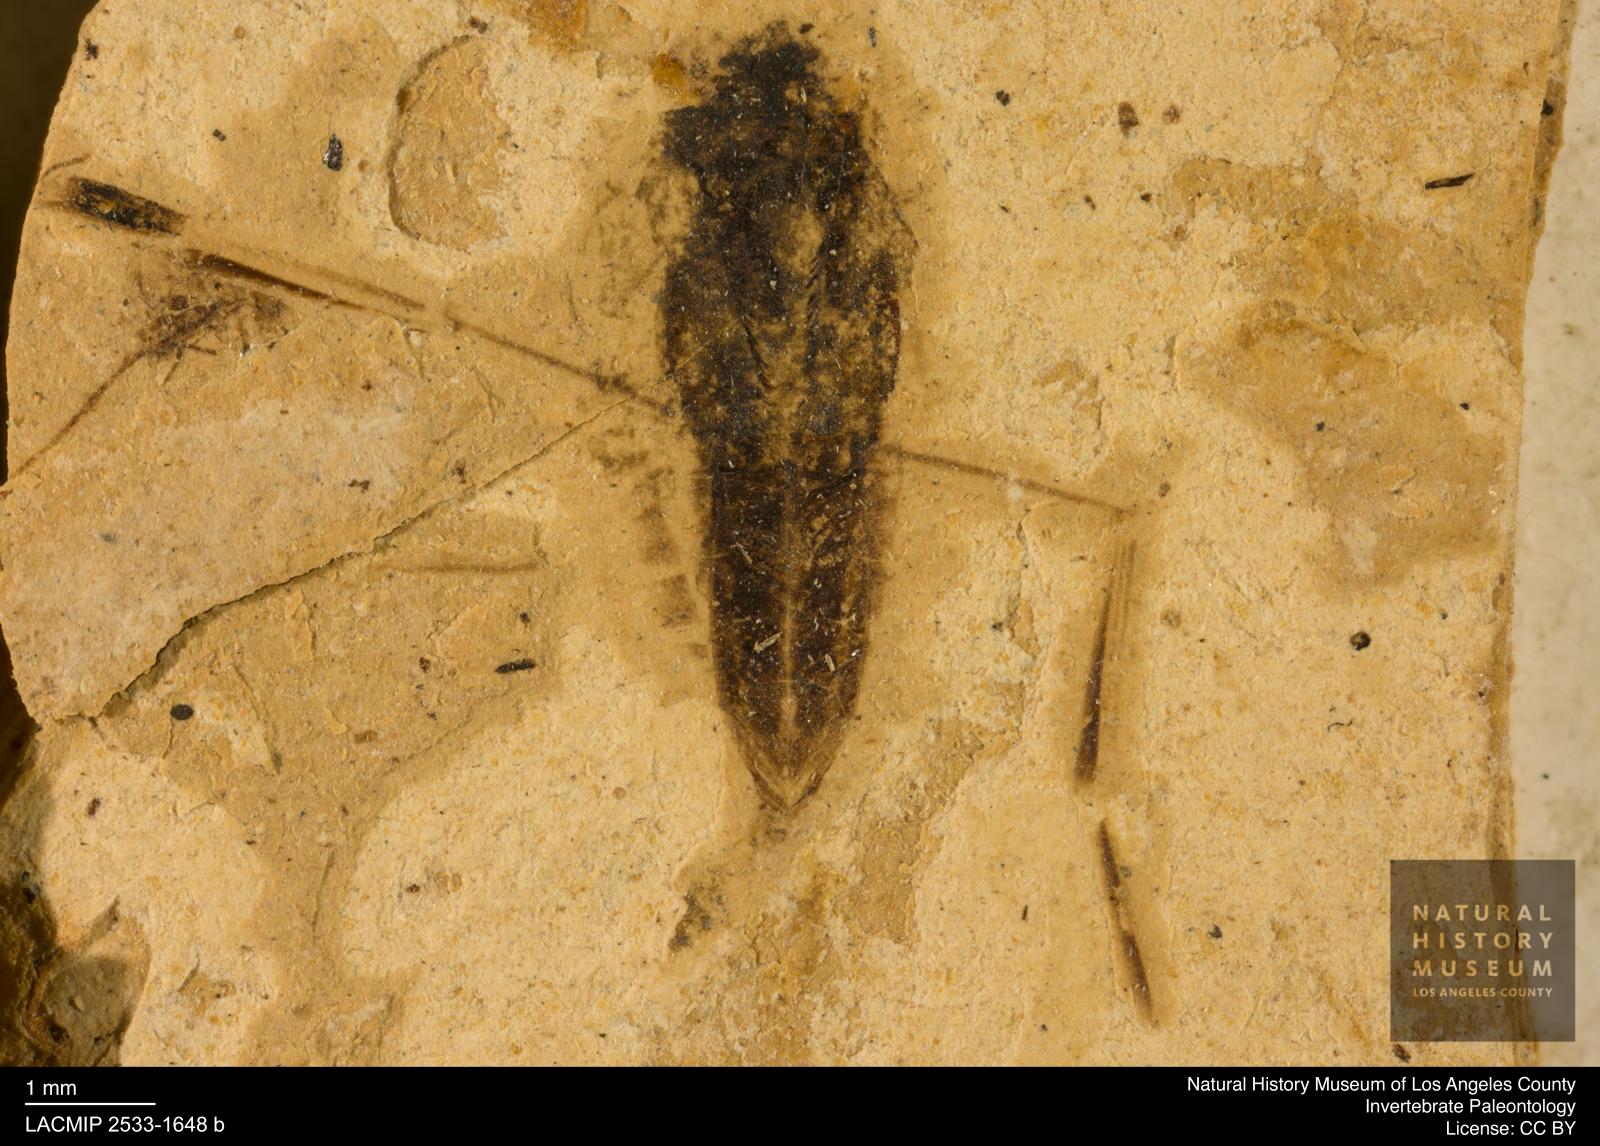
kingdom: Animalia
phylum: Arthropoda
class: Insecta
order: Hemiptera
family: Notonectidae
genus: Notonecta
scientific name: Notonecta
